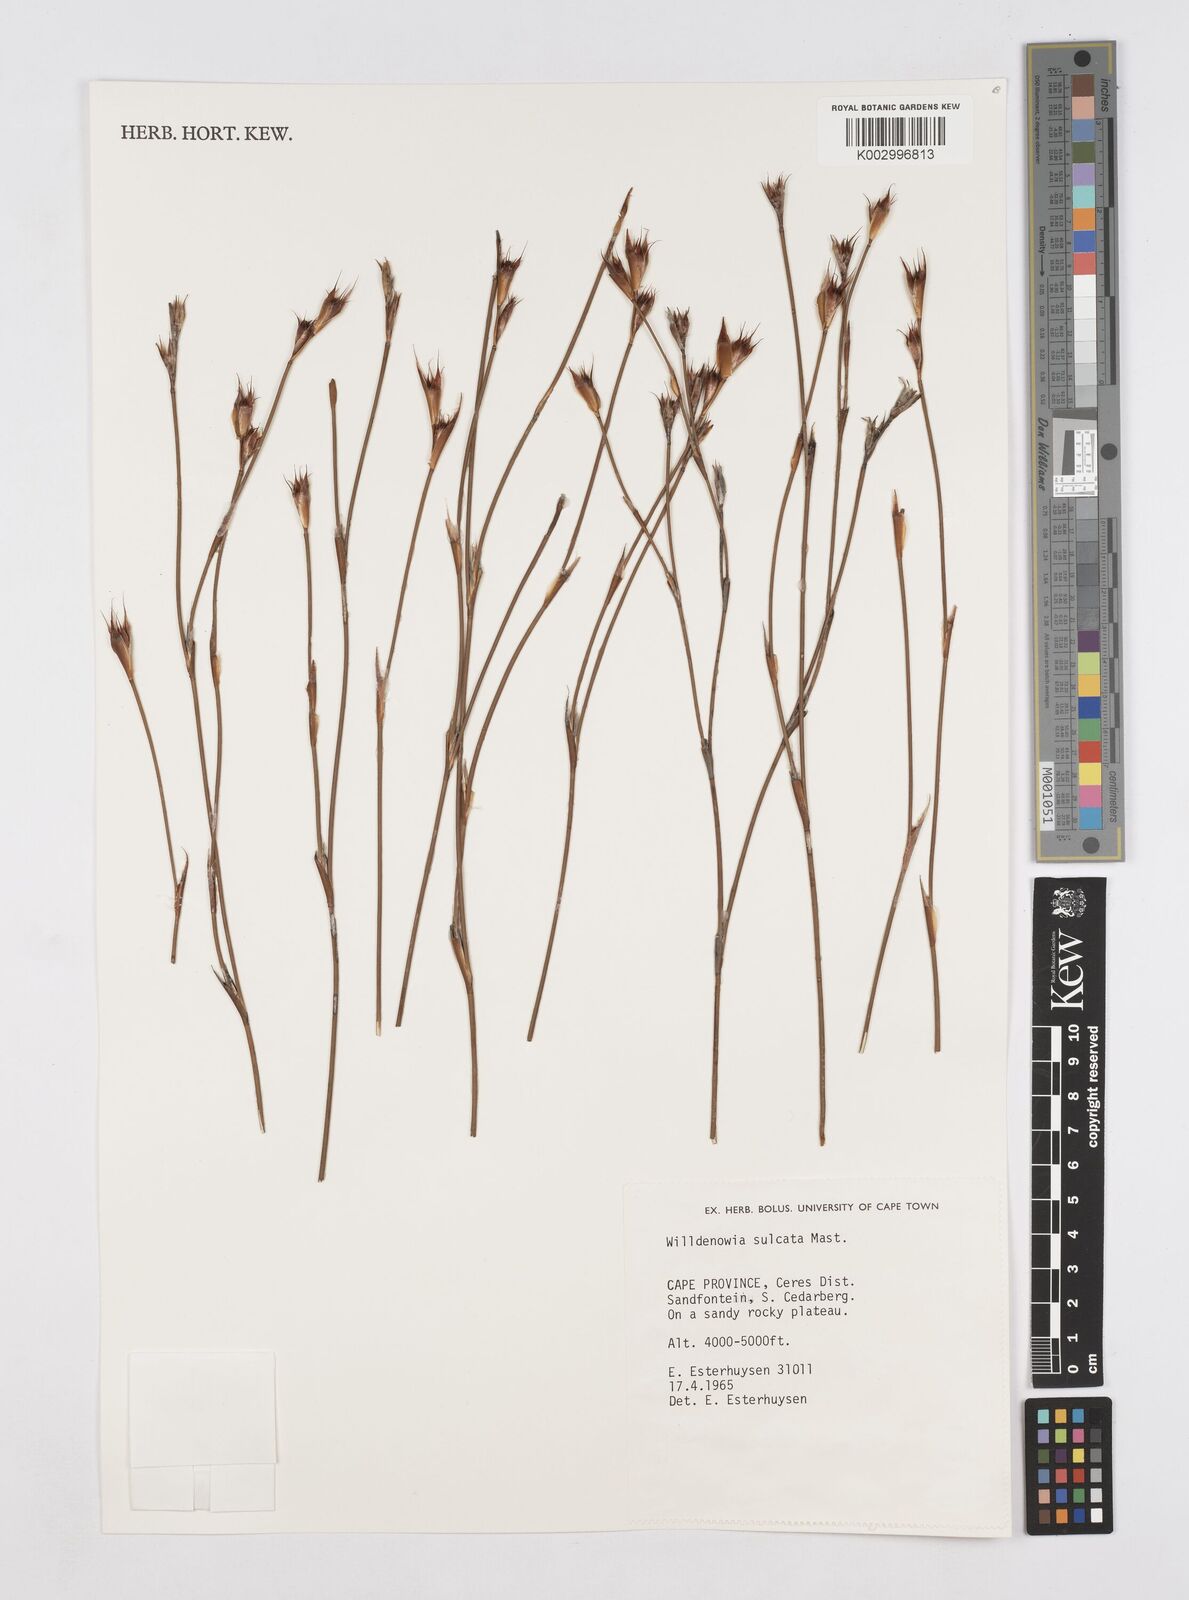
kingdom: Plantae
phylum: Tracheophyta
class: Liliopsida
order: Poales
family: Restionaceae
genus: Willdenowia
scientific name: Willdenowia sulcata
